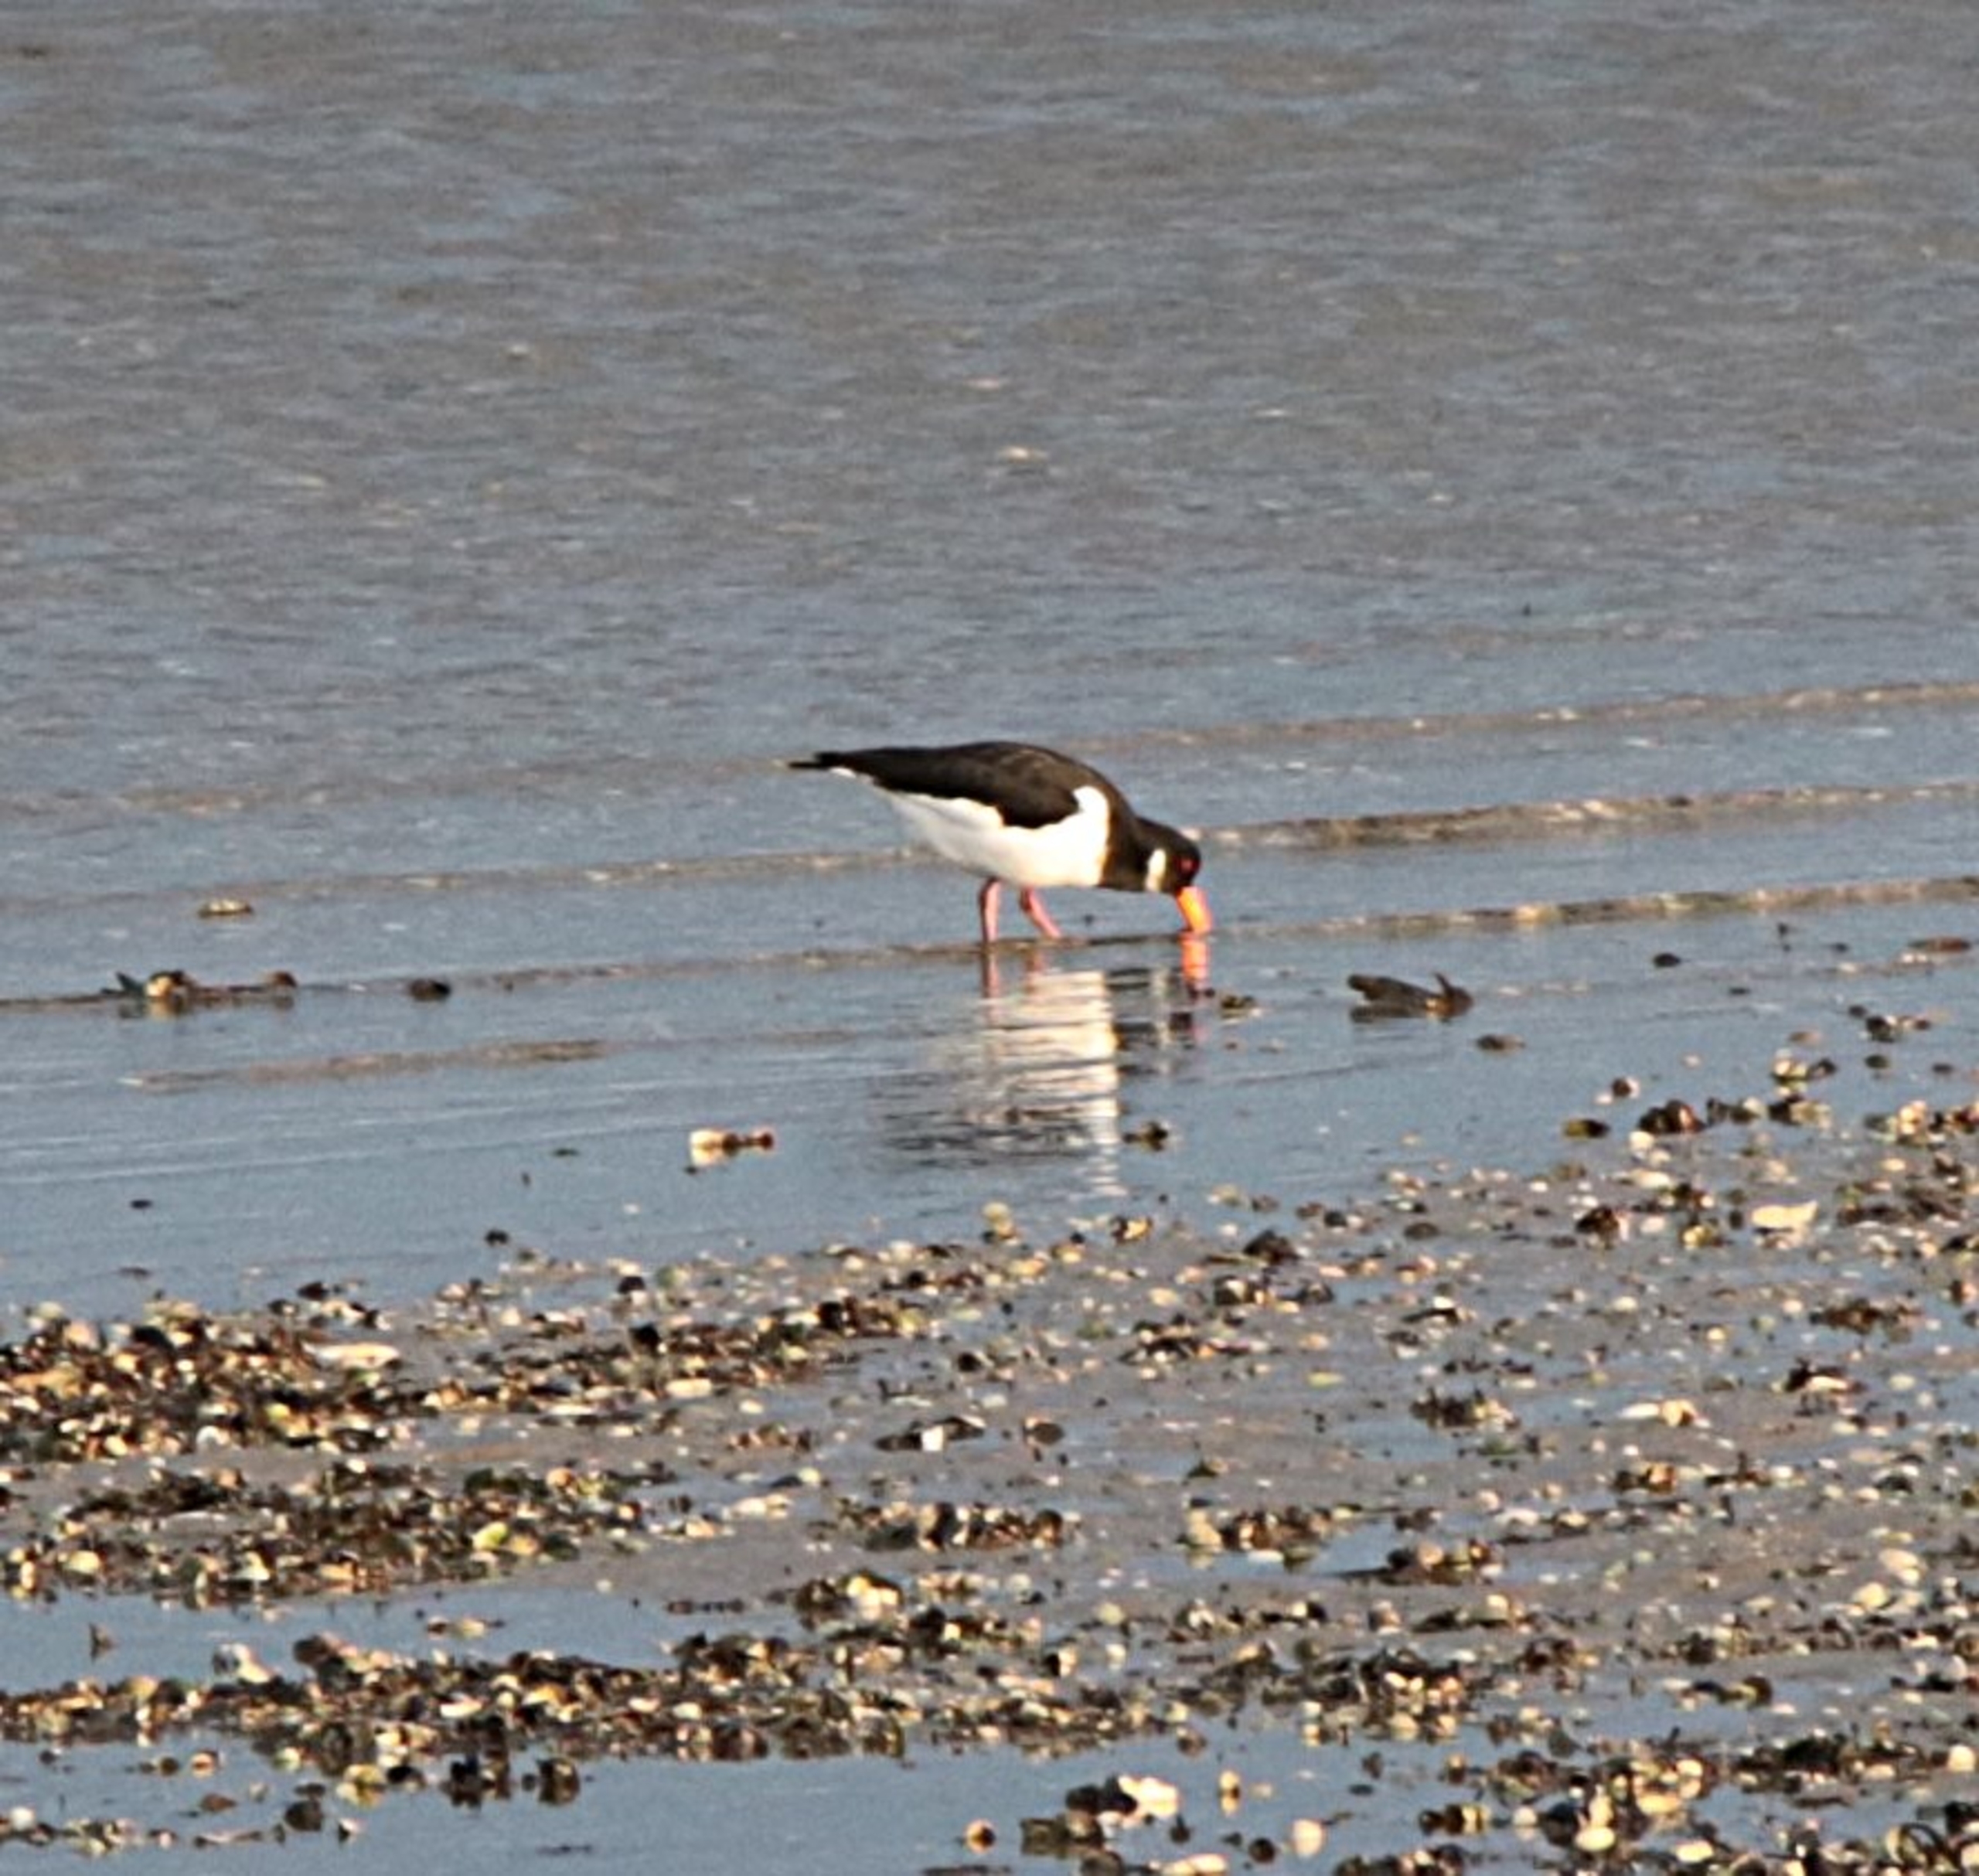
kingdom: Animalia
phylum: Chordata
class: Aves
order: Charadriiformes
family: Haematopodidae
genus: Haematopus
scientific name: Haematopus ostralegus
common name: Strandskade
